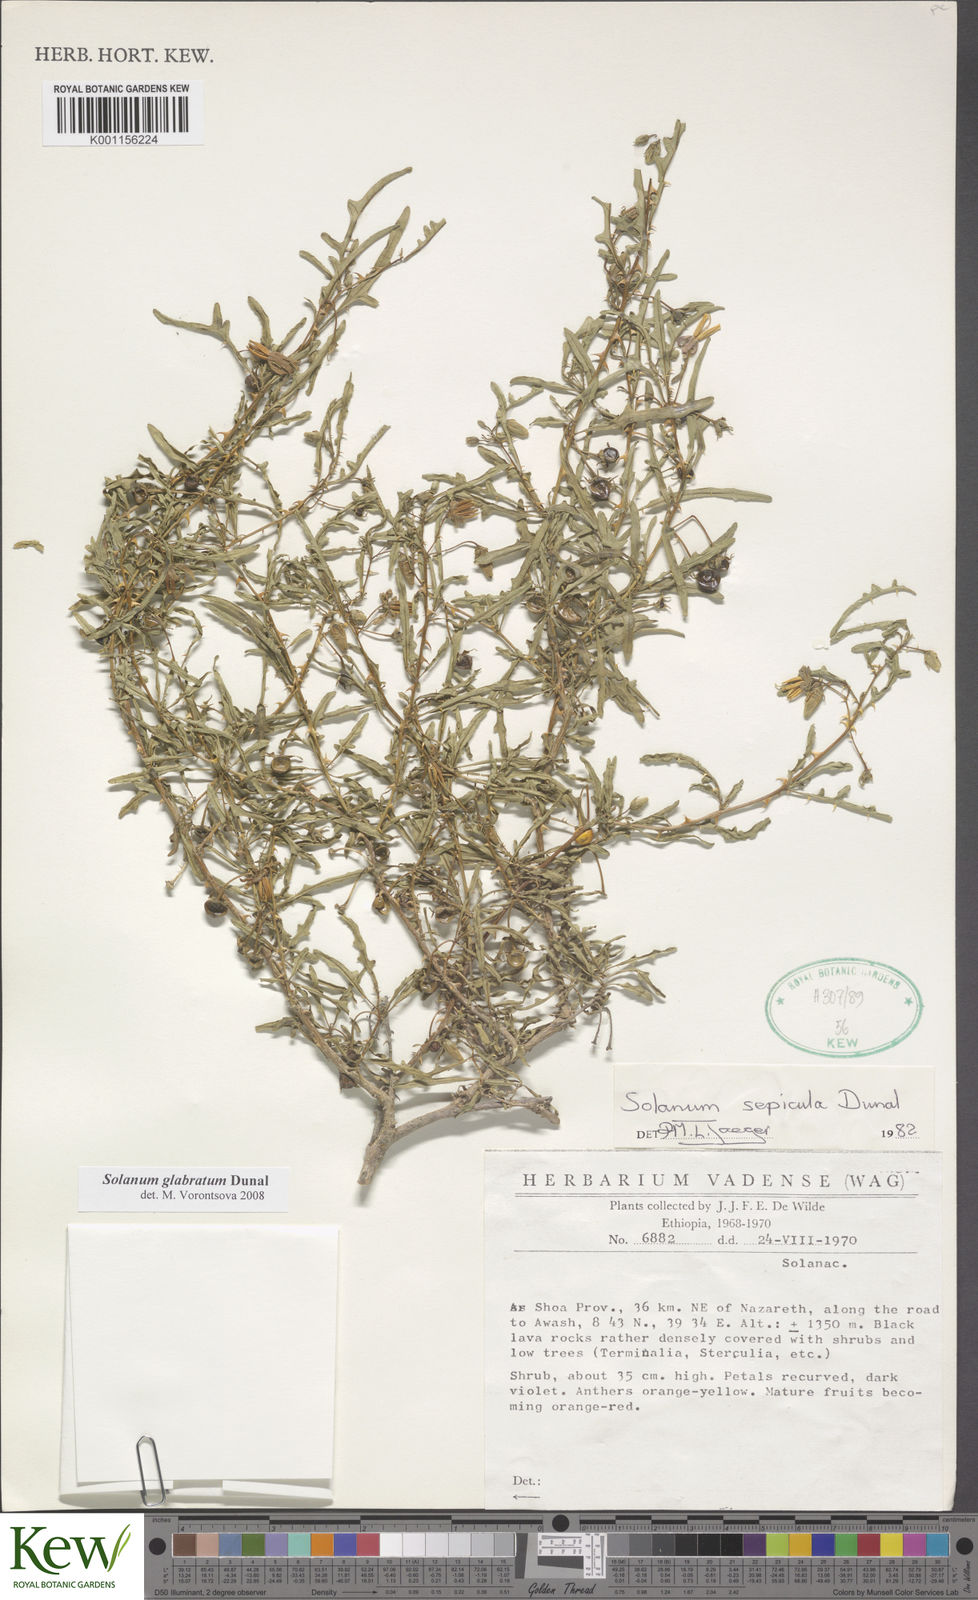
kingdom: Plantae
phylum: Tracheophyta
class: Magnoliopsida
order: Solanales
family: Solanaceae
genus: Solanum
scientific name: Solanum glabratum
